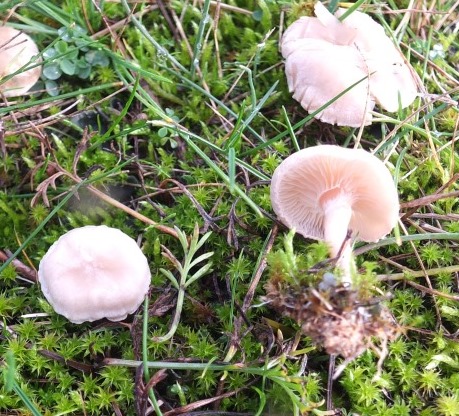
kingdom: Fungi
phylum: Basidiomycota
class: Agaricomycetes
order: Agaricales
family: Tricholomataceae
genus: Clitocybe
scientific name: Clitocybe agrestis
